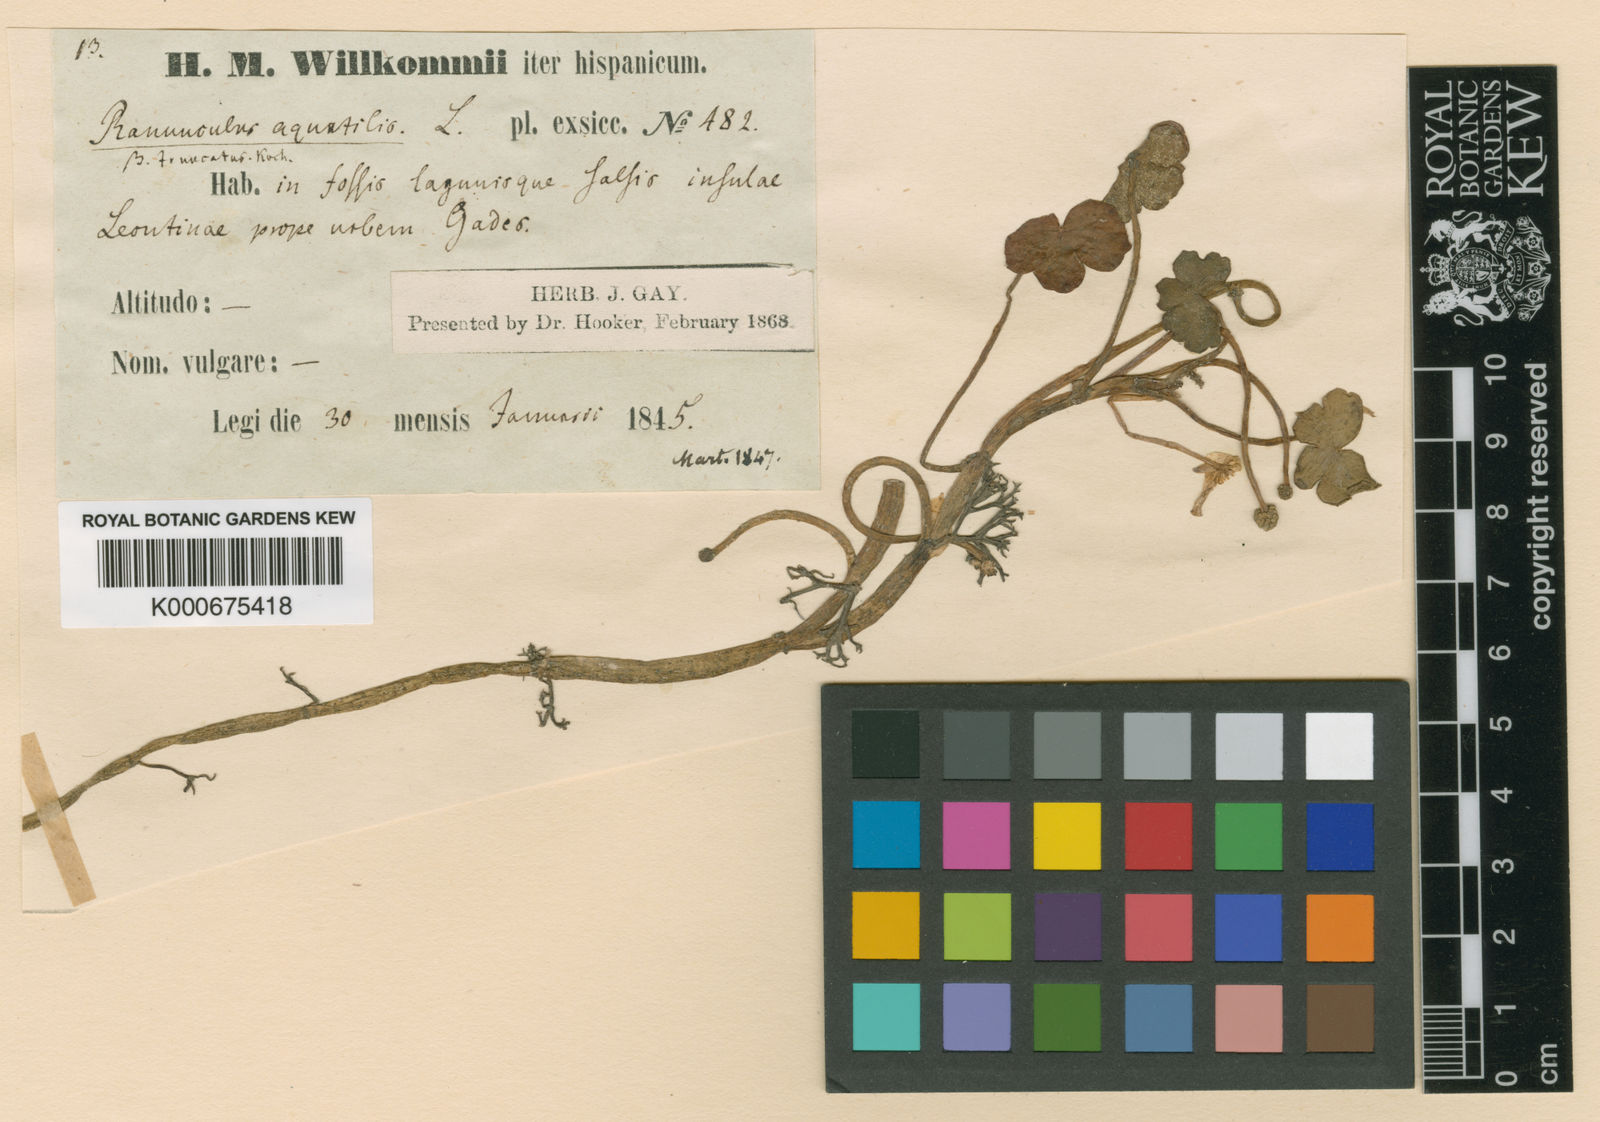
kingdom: Plantae
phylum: Tracheophyta
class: Magnoliopsida
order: Ranunculales
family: Ranunculaceae
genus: Ranunculus
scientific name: Ranunculus peltatus
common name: Pond water-crowfoot
